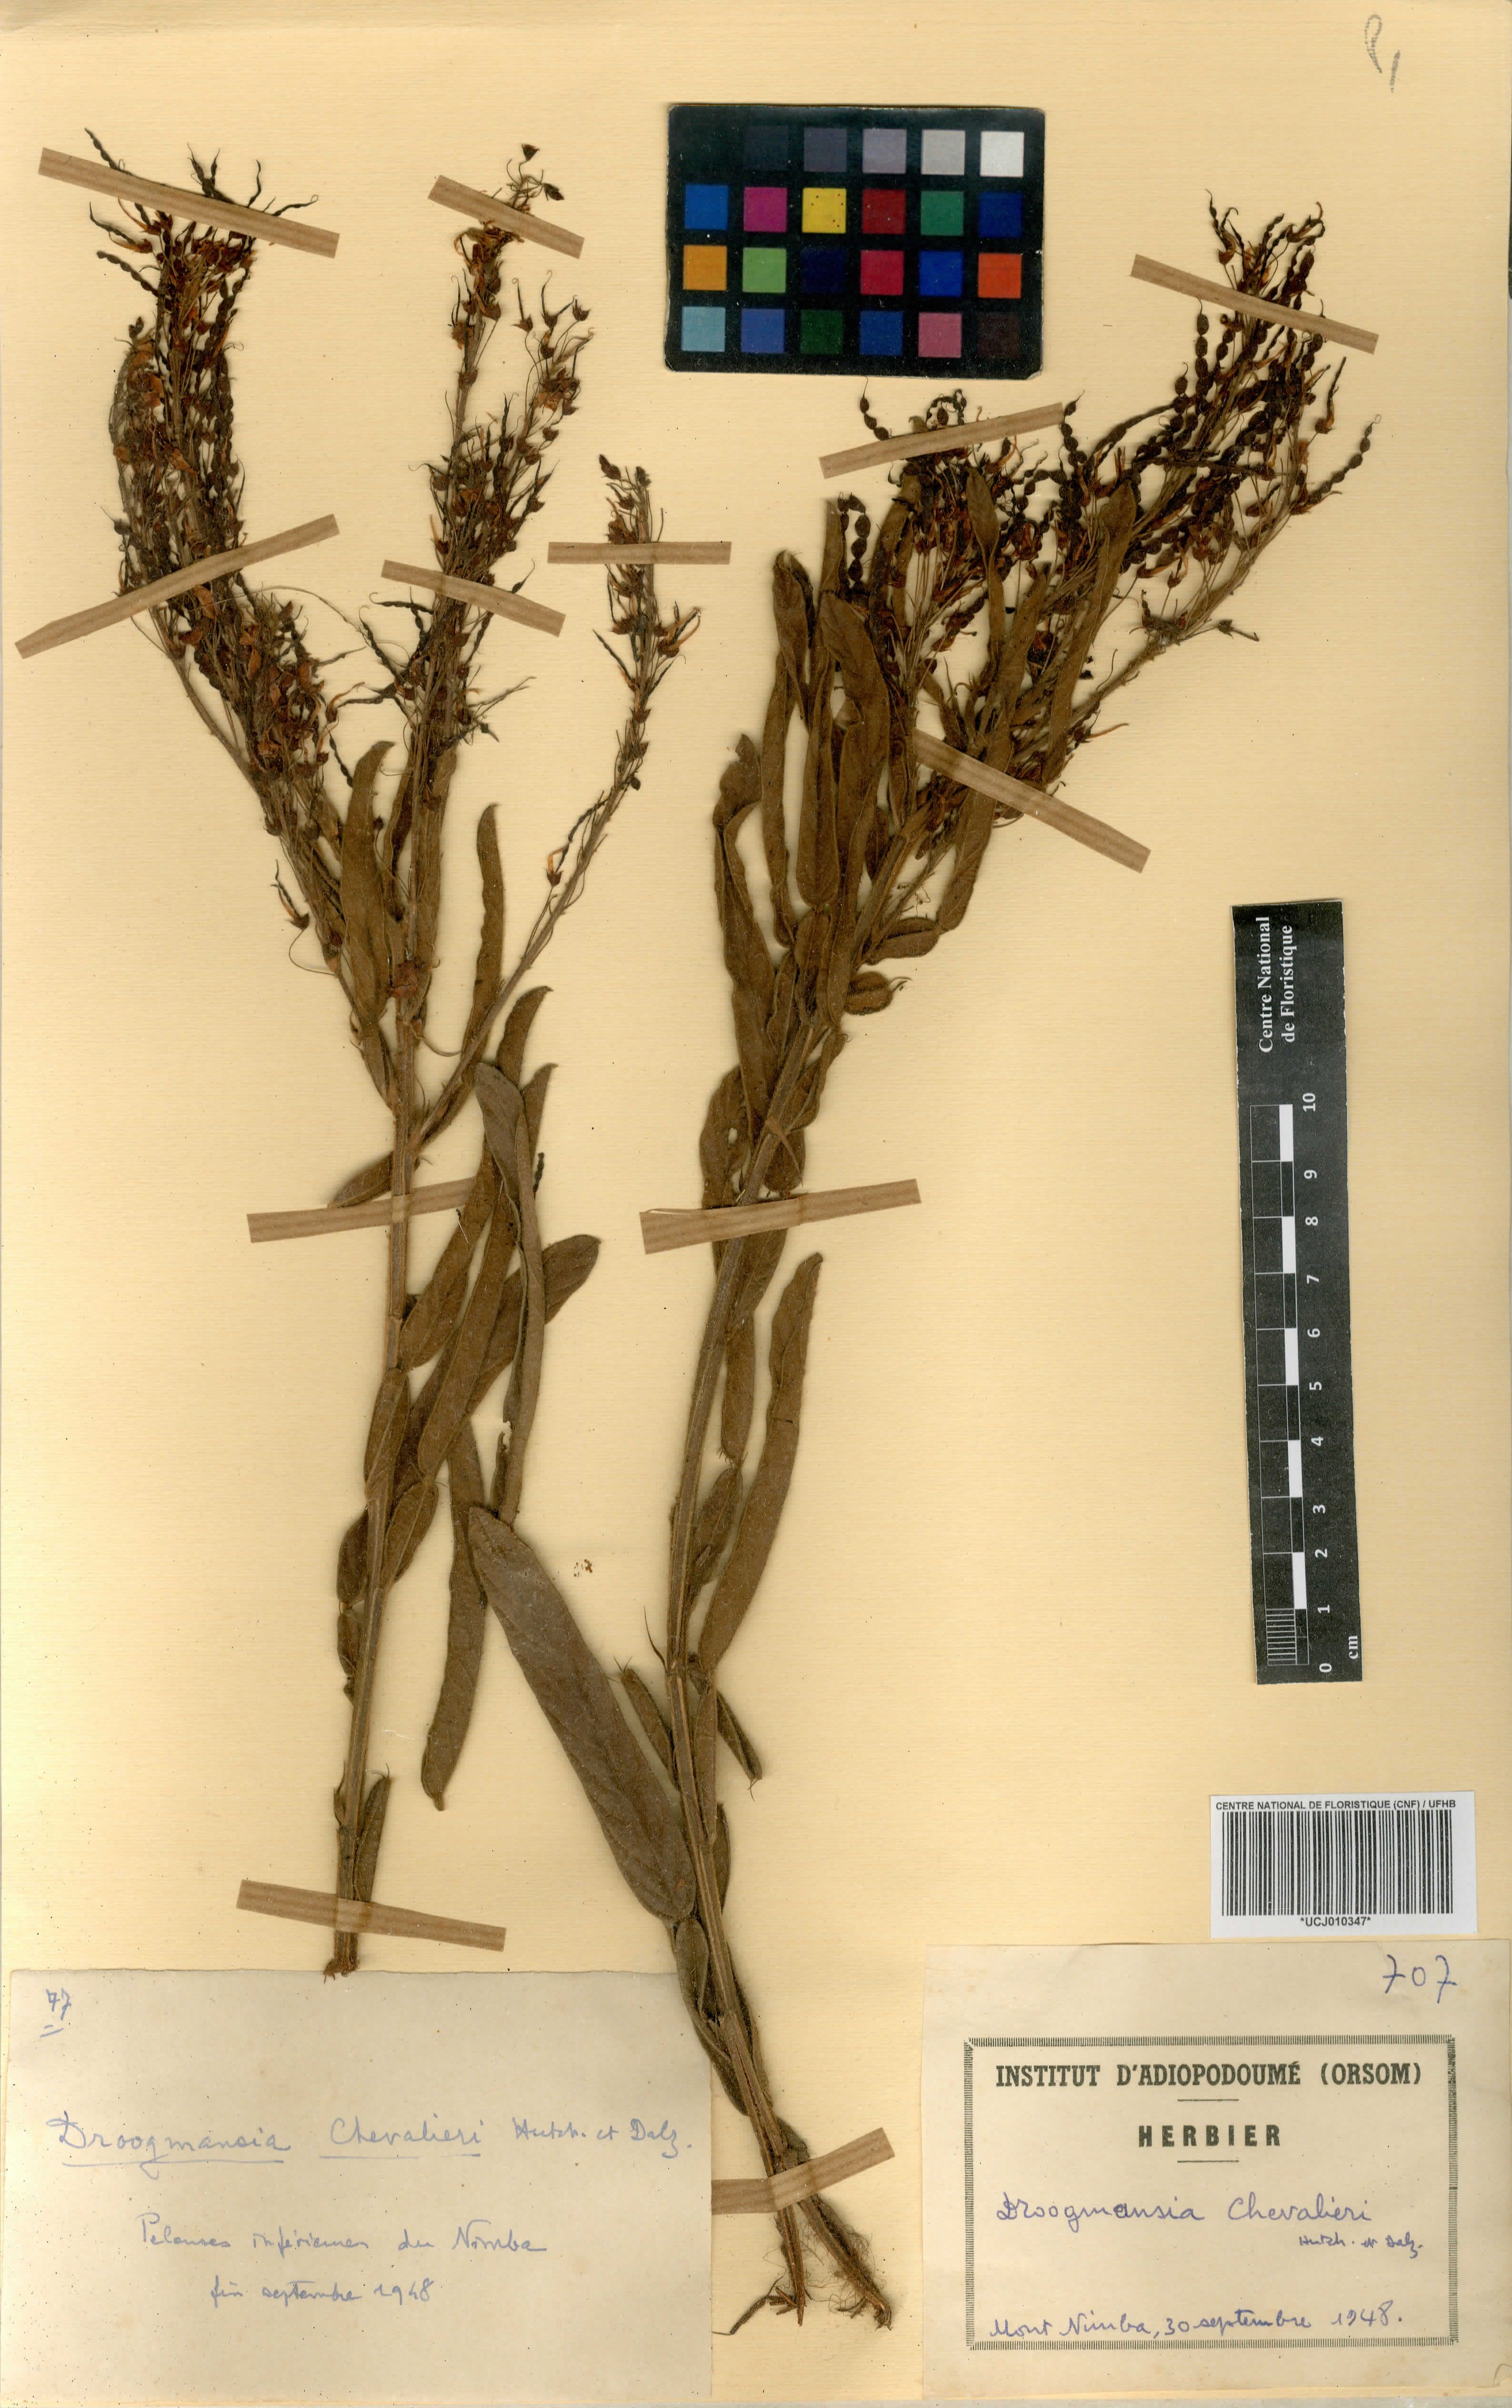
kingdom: Plantae
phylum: Tracheophyta
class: Magnoliopsida
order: Fabales
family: Fabaceae
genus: Droogmansia
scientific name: Droogmansia chevalieri
